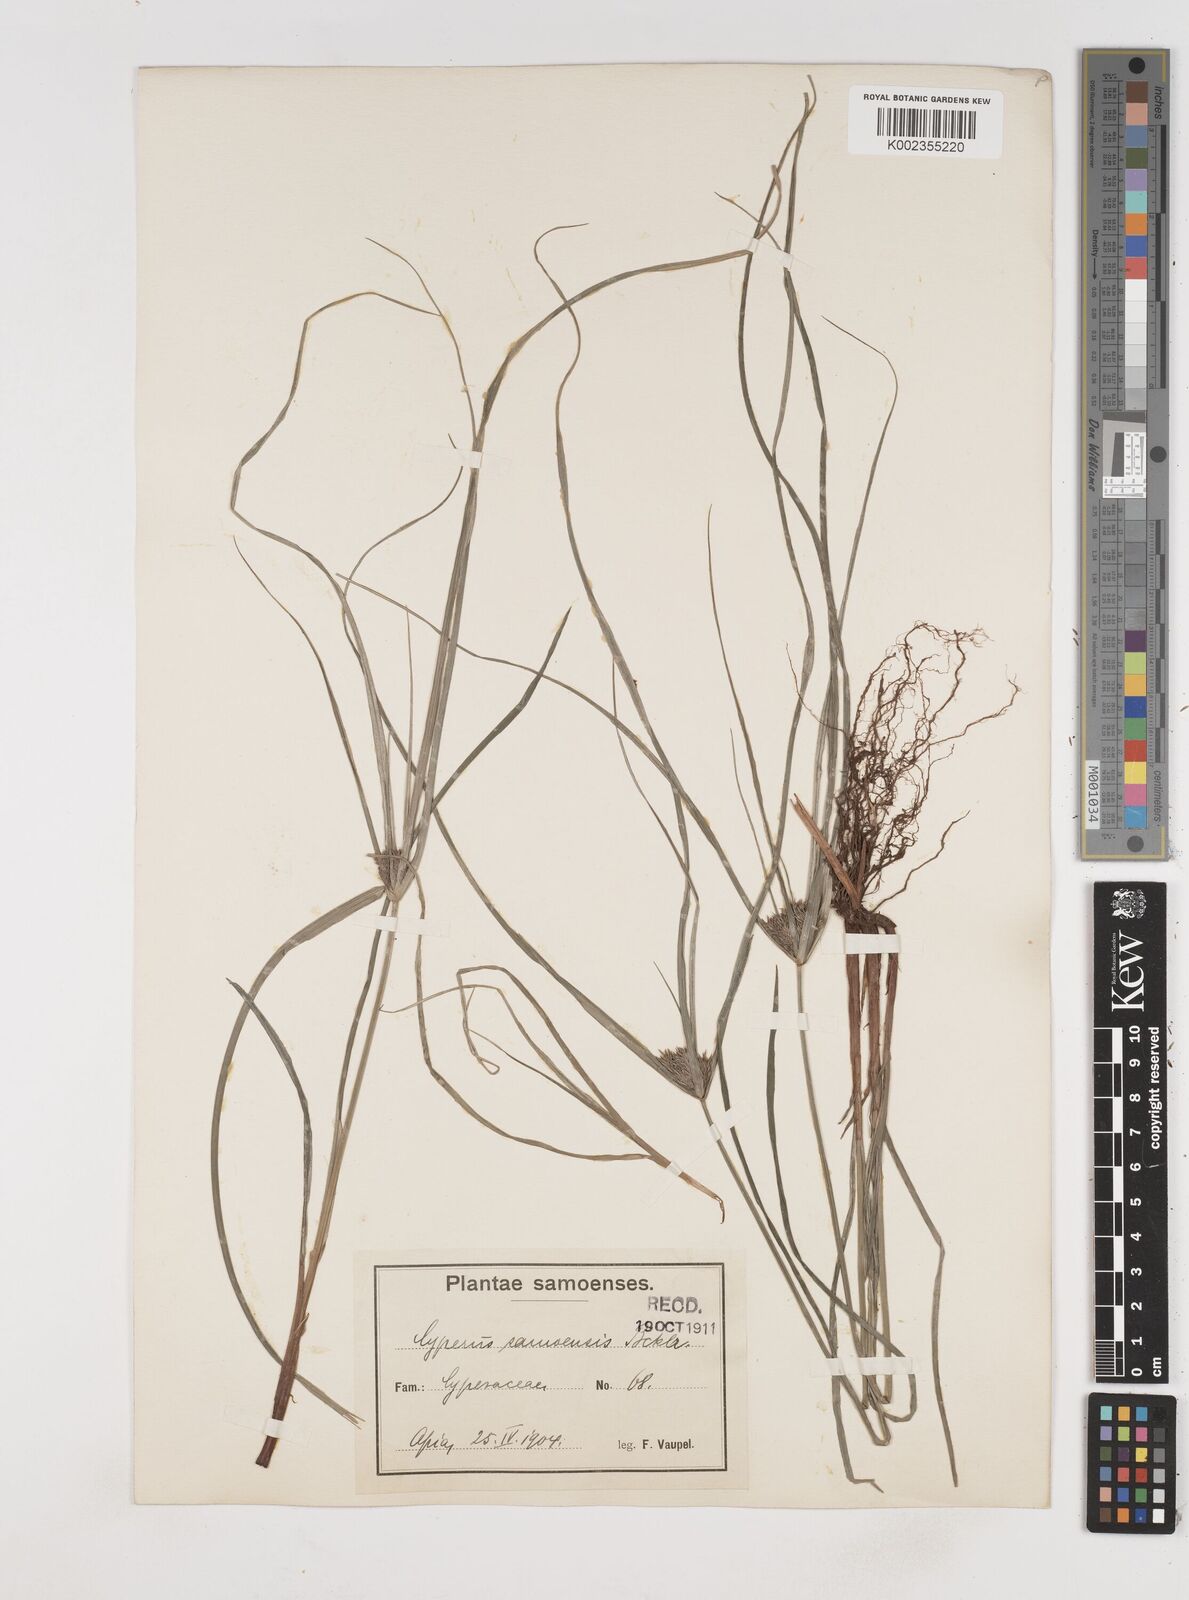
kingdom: Plantae
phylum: Tracheophyta
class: Liliopsida
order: Poales
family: Cyperaceae
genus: Cyperus
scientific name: Cyperus cyperinus
